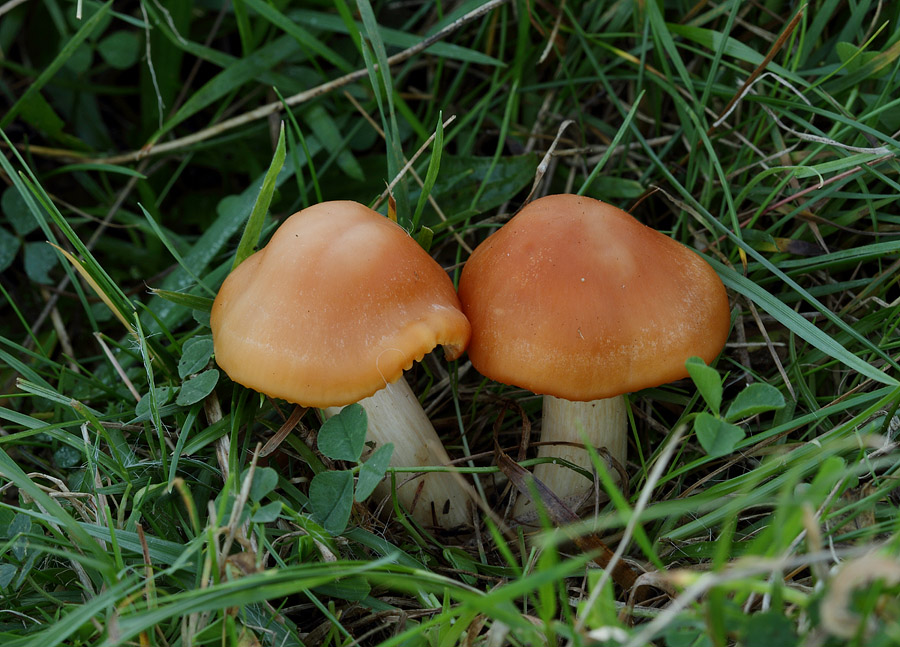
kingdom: Fungi
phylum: Basidiomycota
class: Agaricomycetes
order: Agaricales
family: Hygrophoraceae
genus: Cuphophyllus
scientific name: Cuphophyllus pratensis
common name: eng-vokshat
